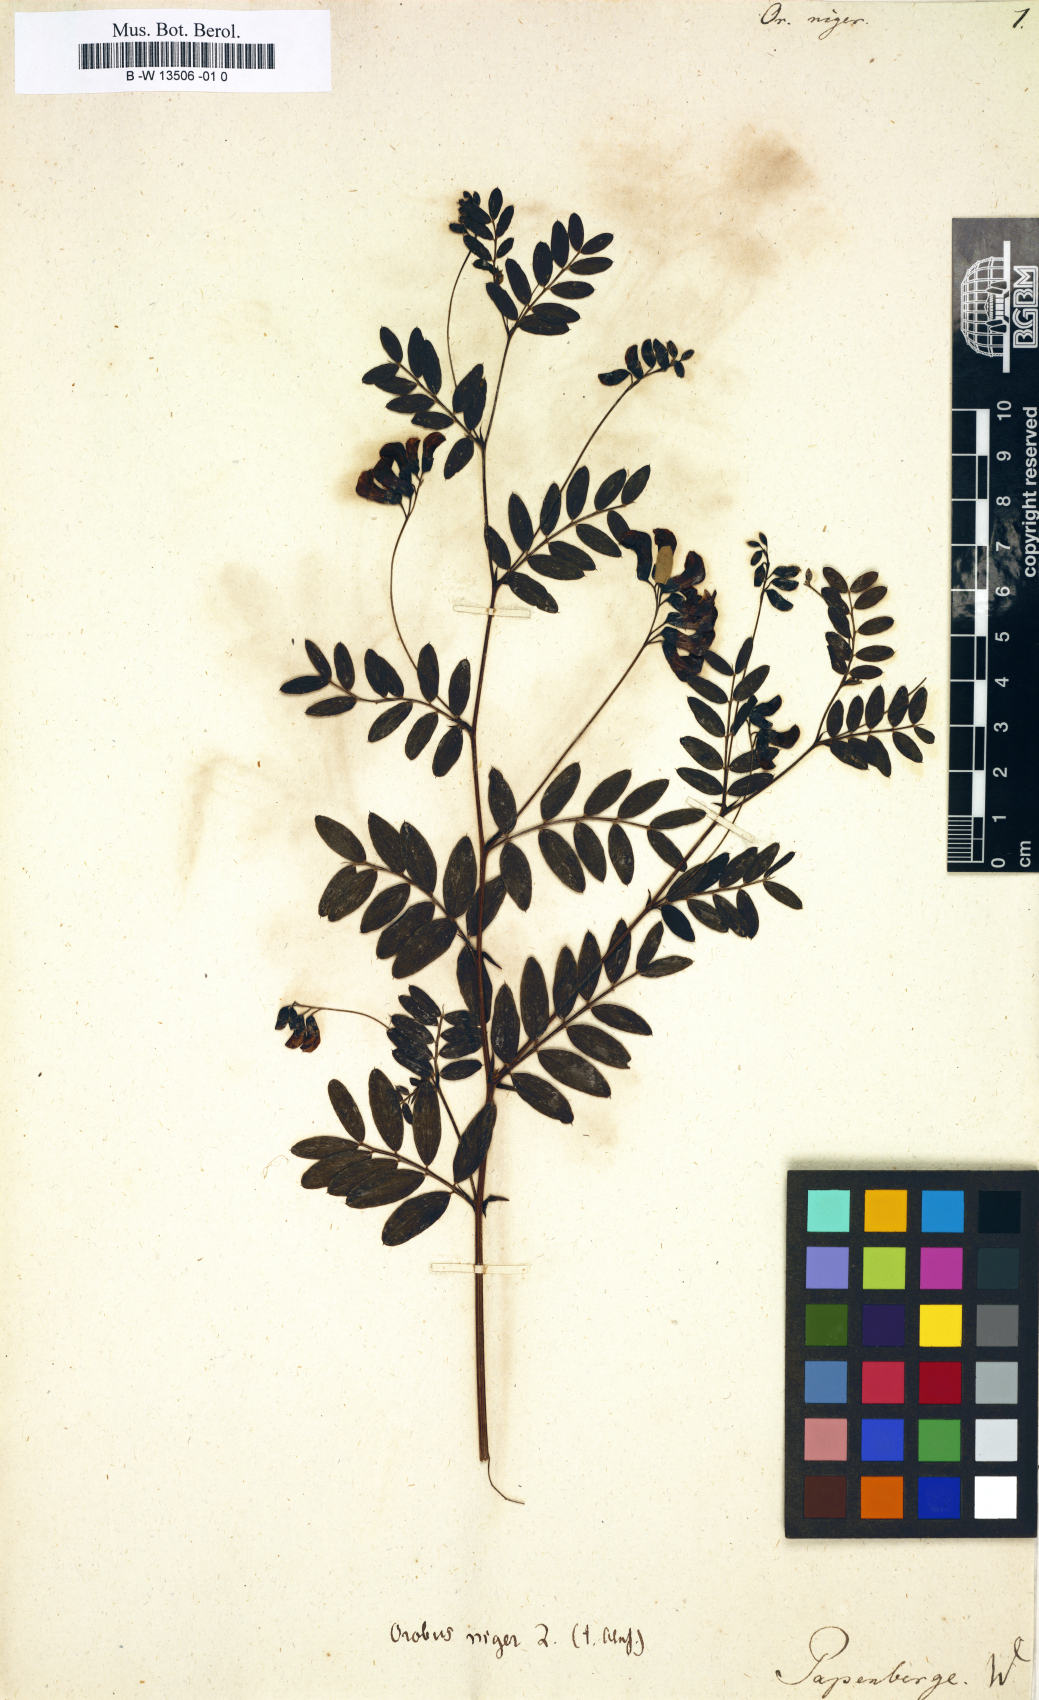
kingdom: Plantae
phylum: Tracheophyta
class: Magnoliopsida
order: Fabales
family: Fabaceae
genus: Lathyrus
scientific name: Lathyrus niger
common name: Black pea
